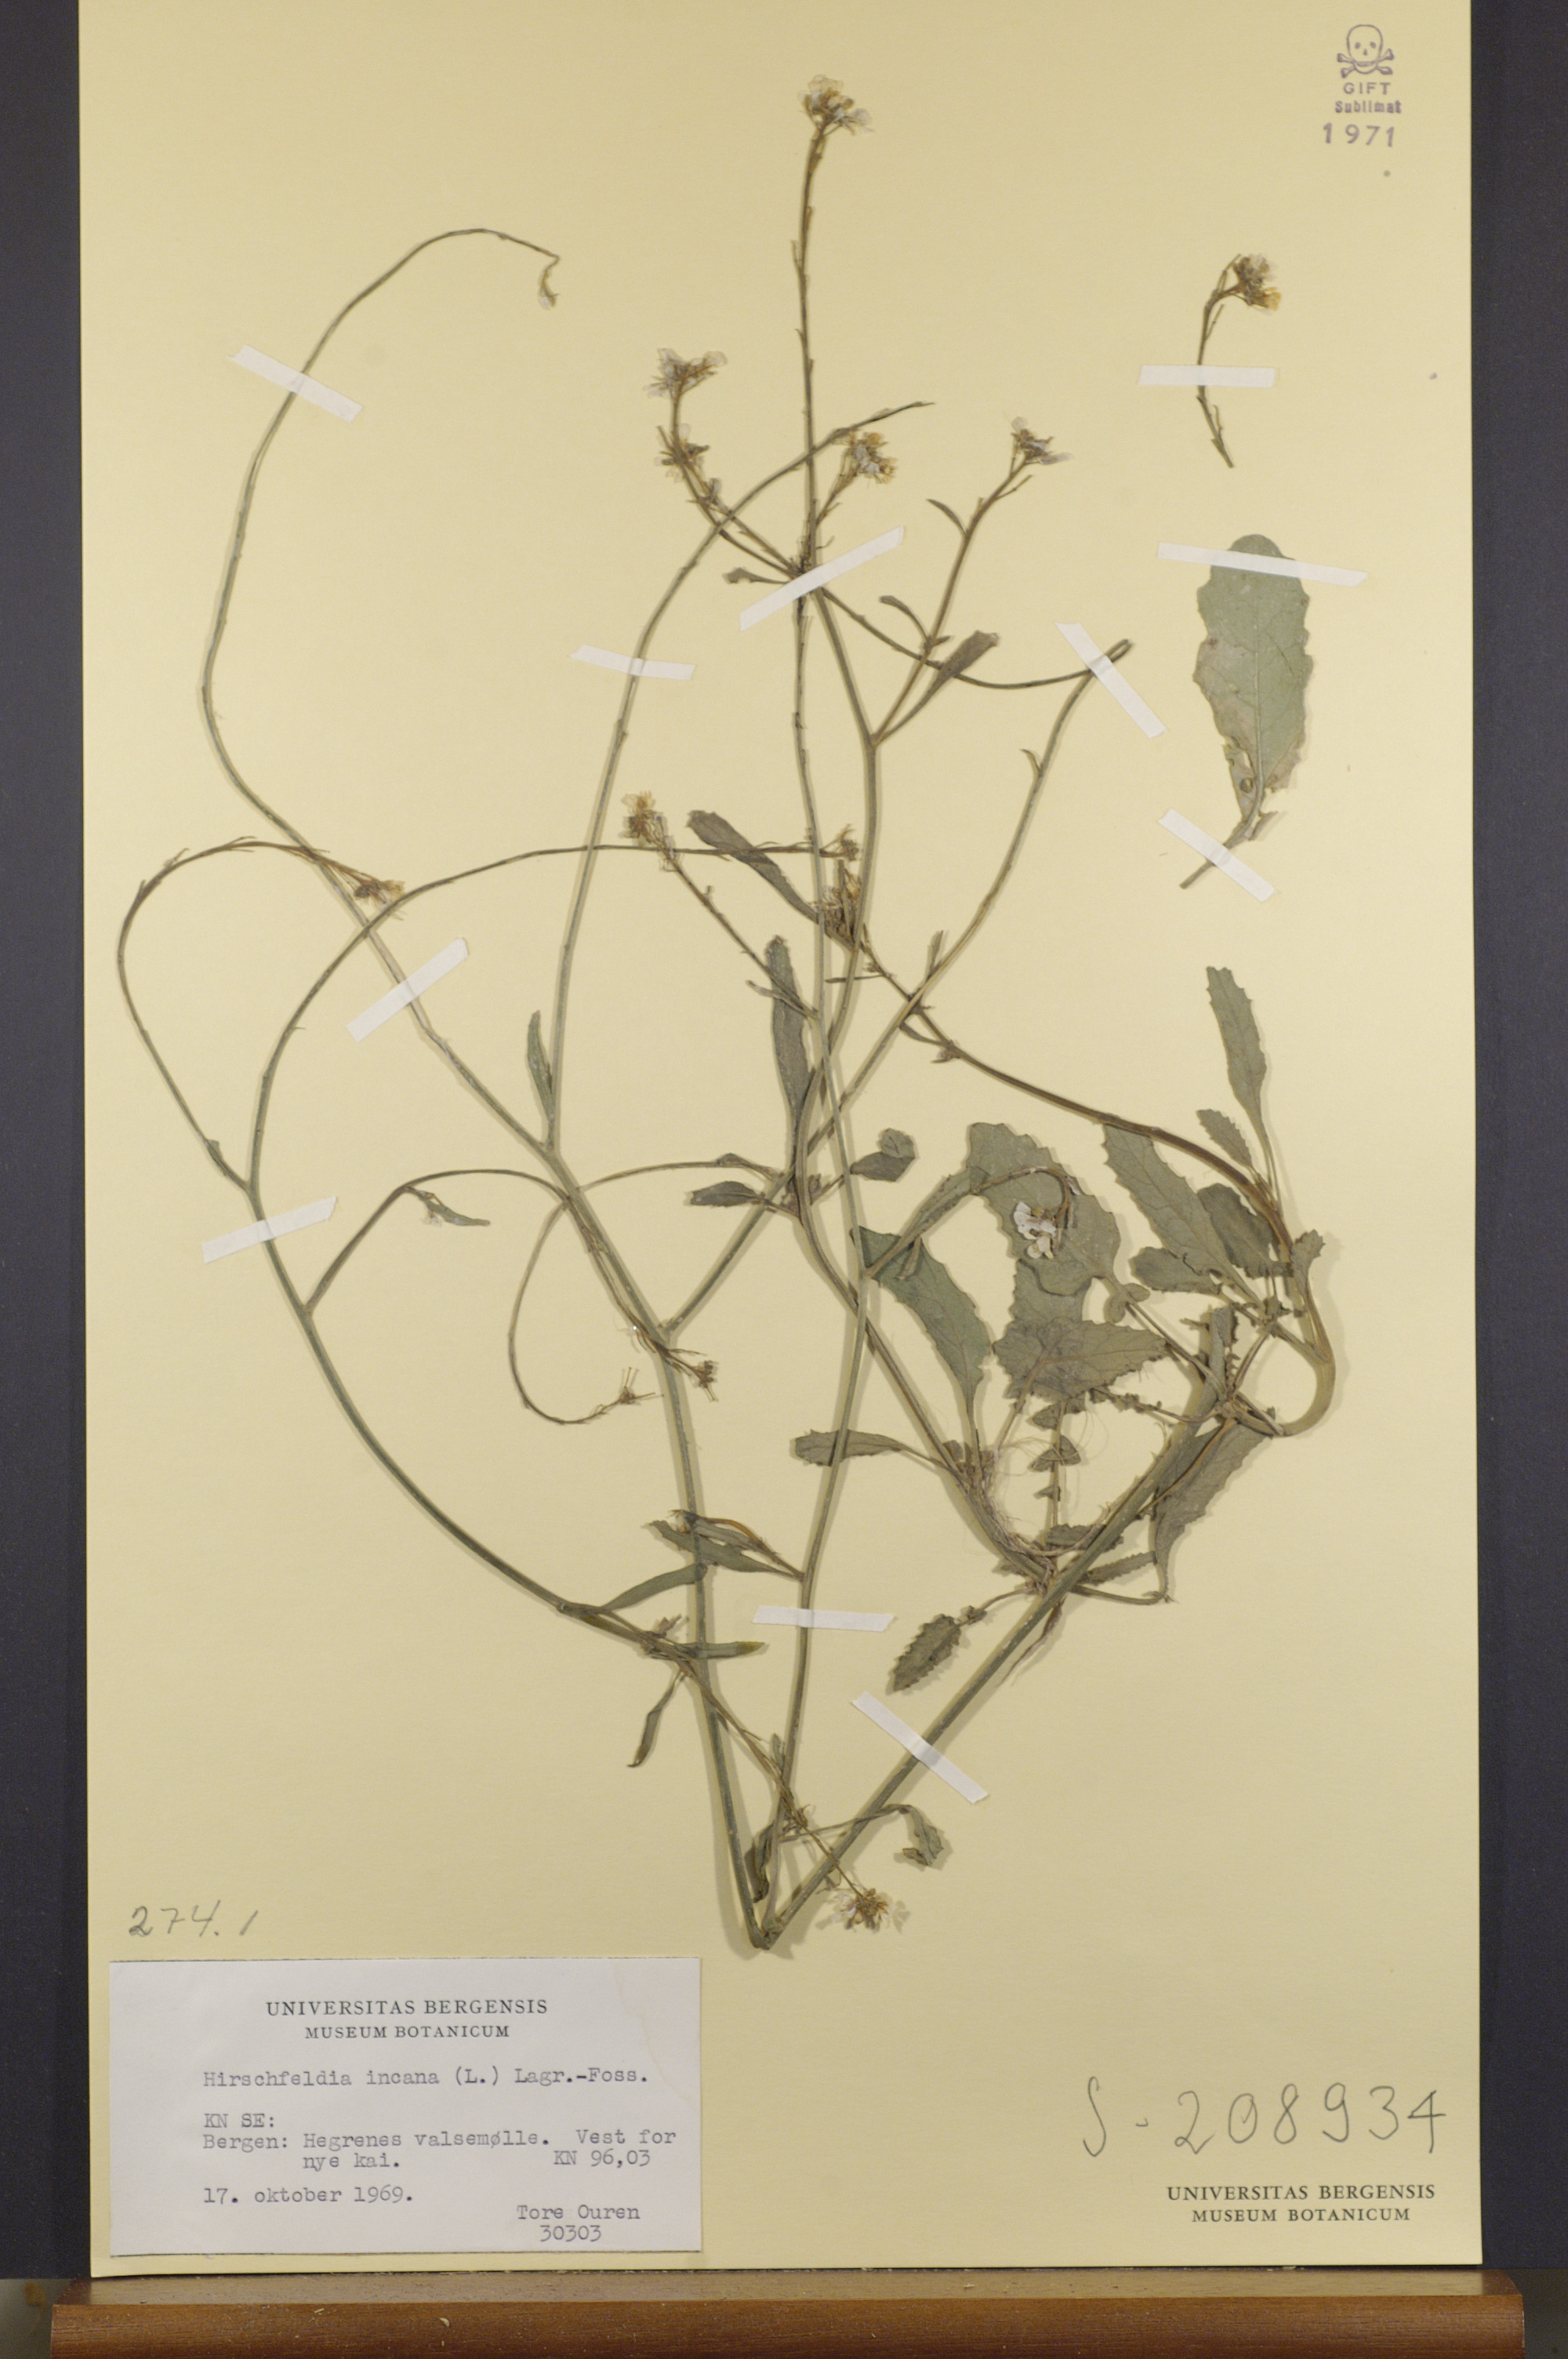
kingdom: Plantae
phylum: Tracheophyta
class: Magnoliopsida
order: Brassicales
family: Brassicaceae
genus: Hirschfeldia
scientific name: Hirschfeldia incana
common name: Hoary mustard
